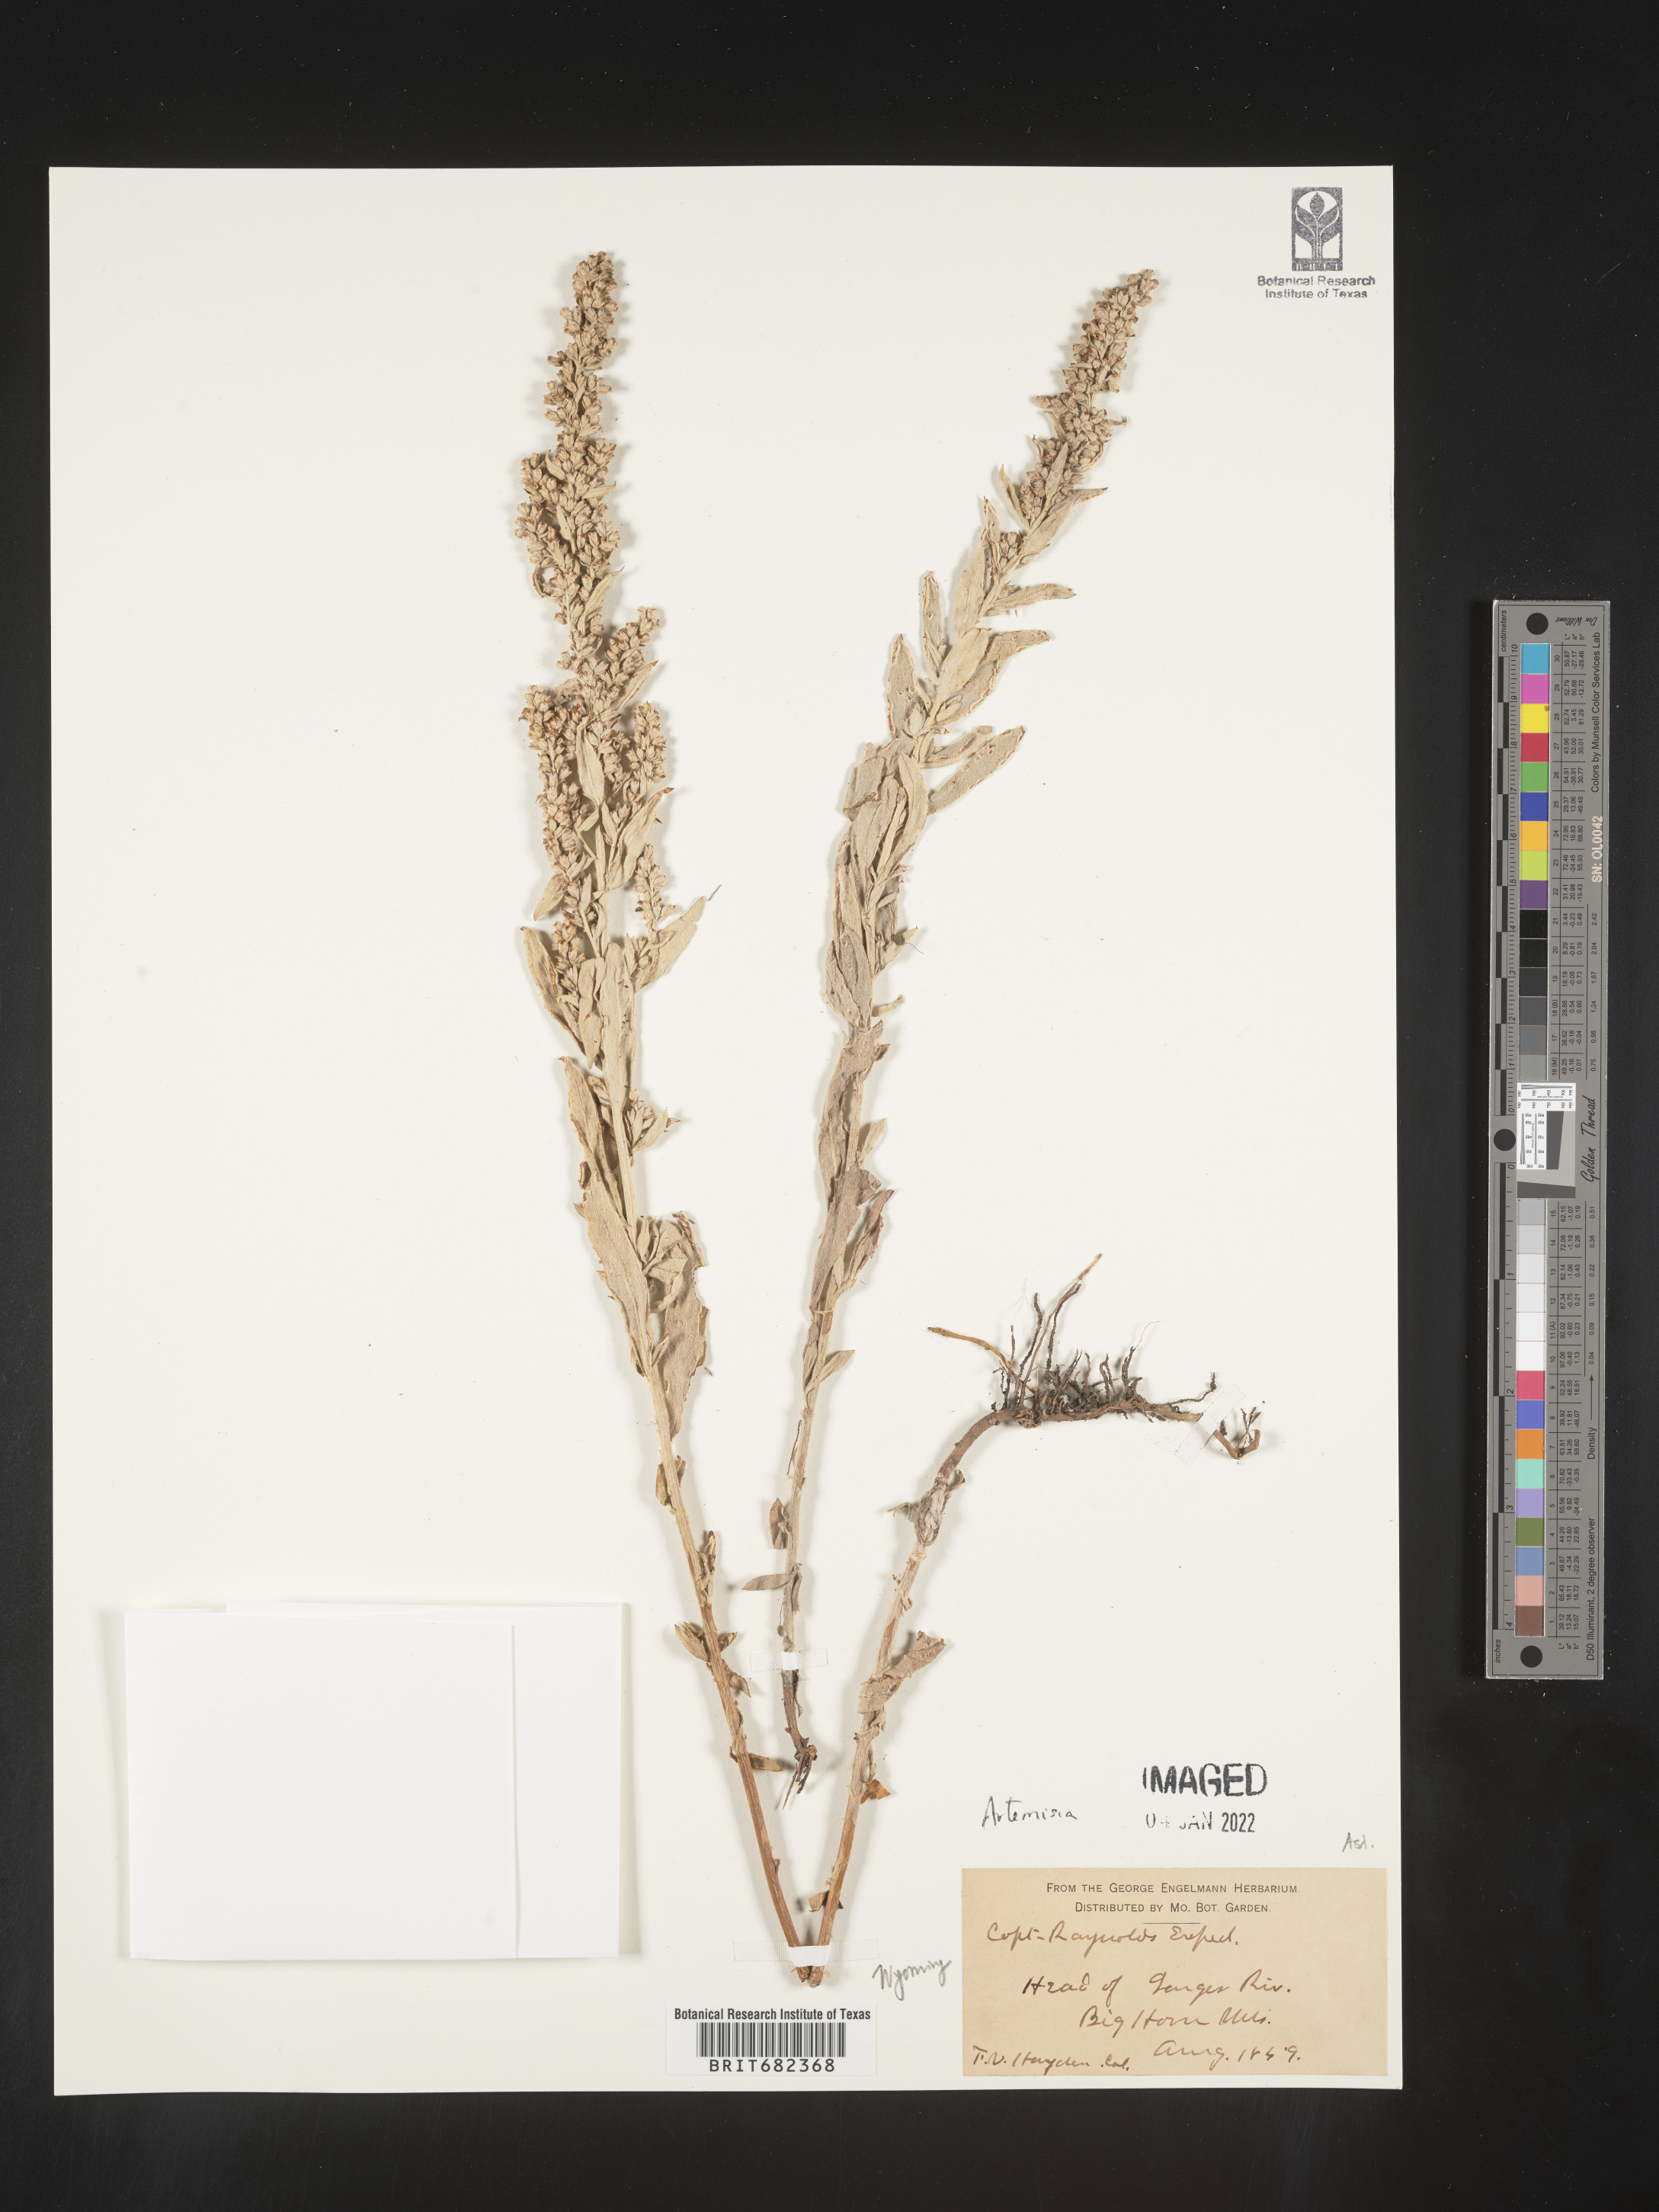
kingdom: Plantae
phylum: Tracheophyta
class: Magnoliopsida
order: Asterales
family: Asteraceae
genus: Artemisia
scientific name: Artemisia
